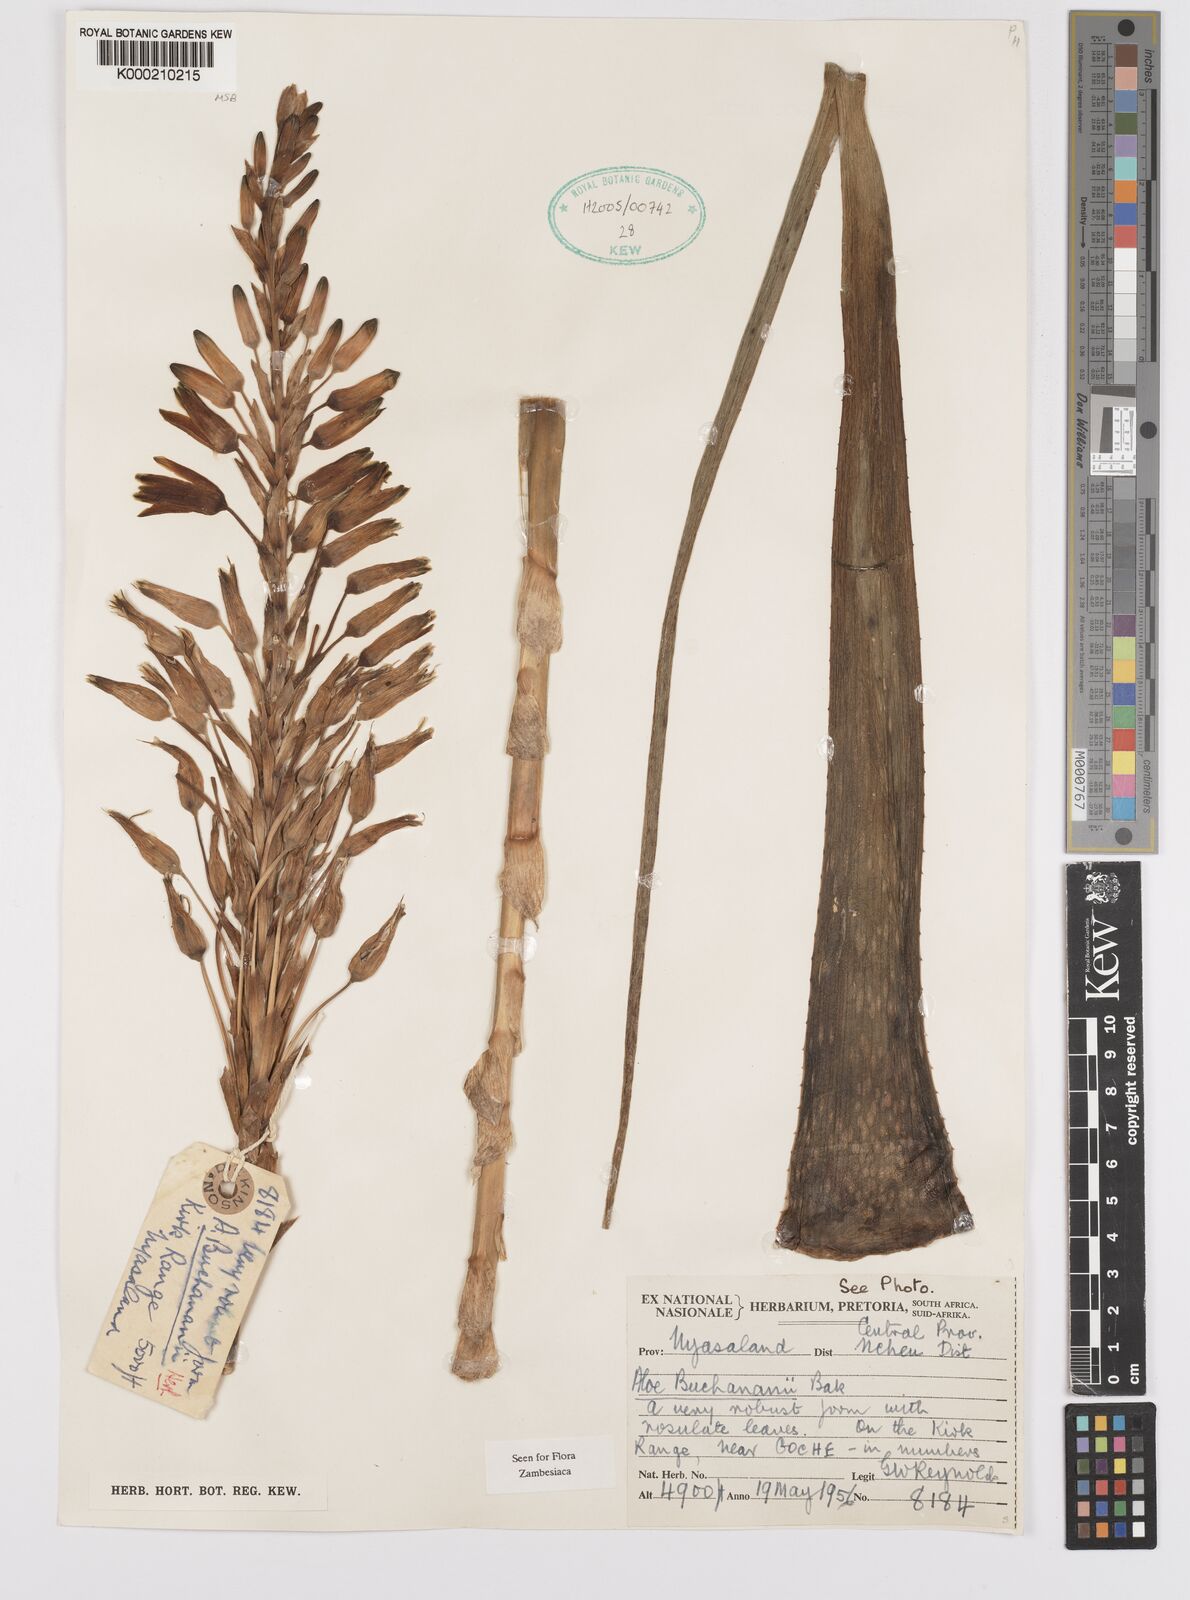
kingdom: Plantae
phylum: Tracheophyta
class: Liliopsida
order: Asparagales
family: Asphodelaceae
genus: Aloe
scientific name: Aloe buchananii
